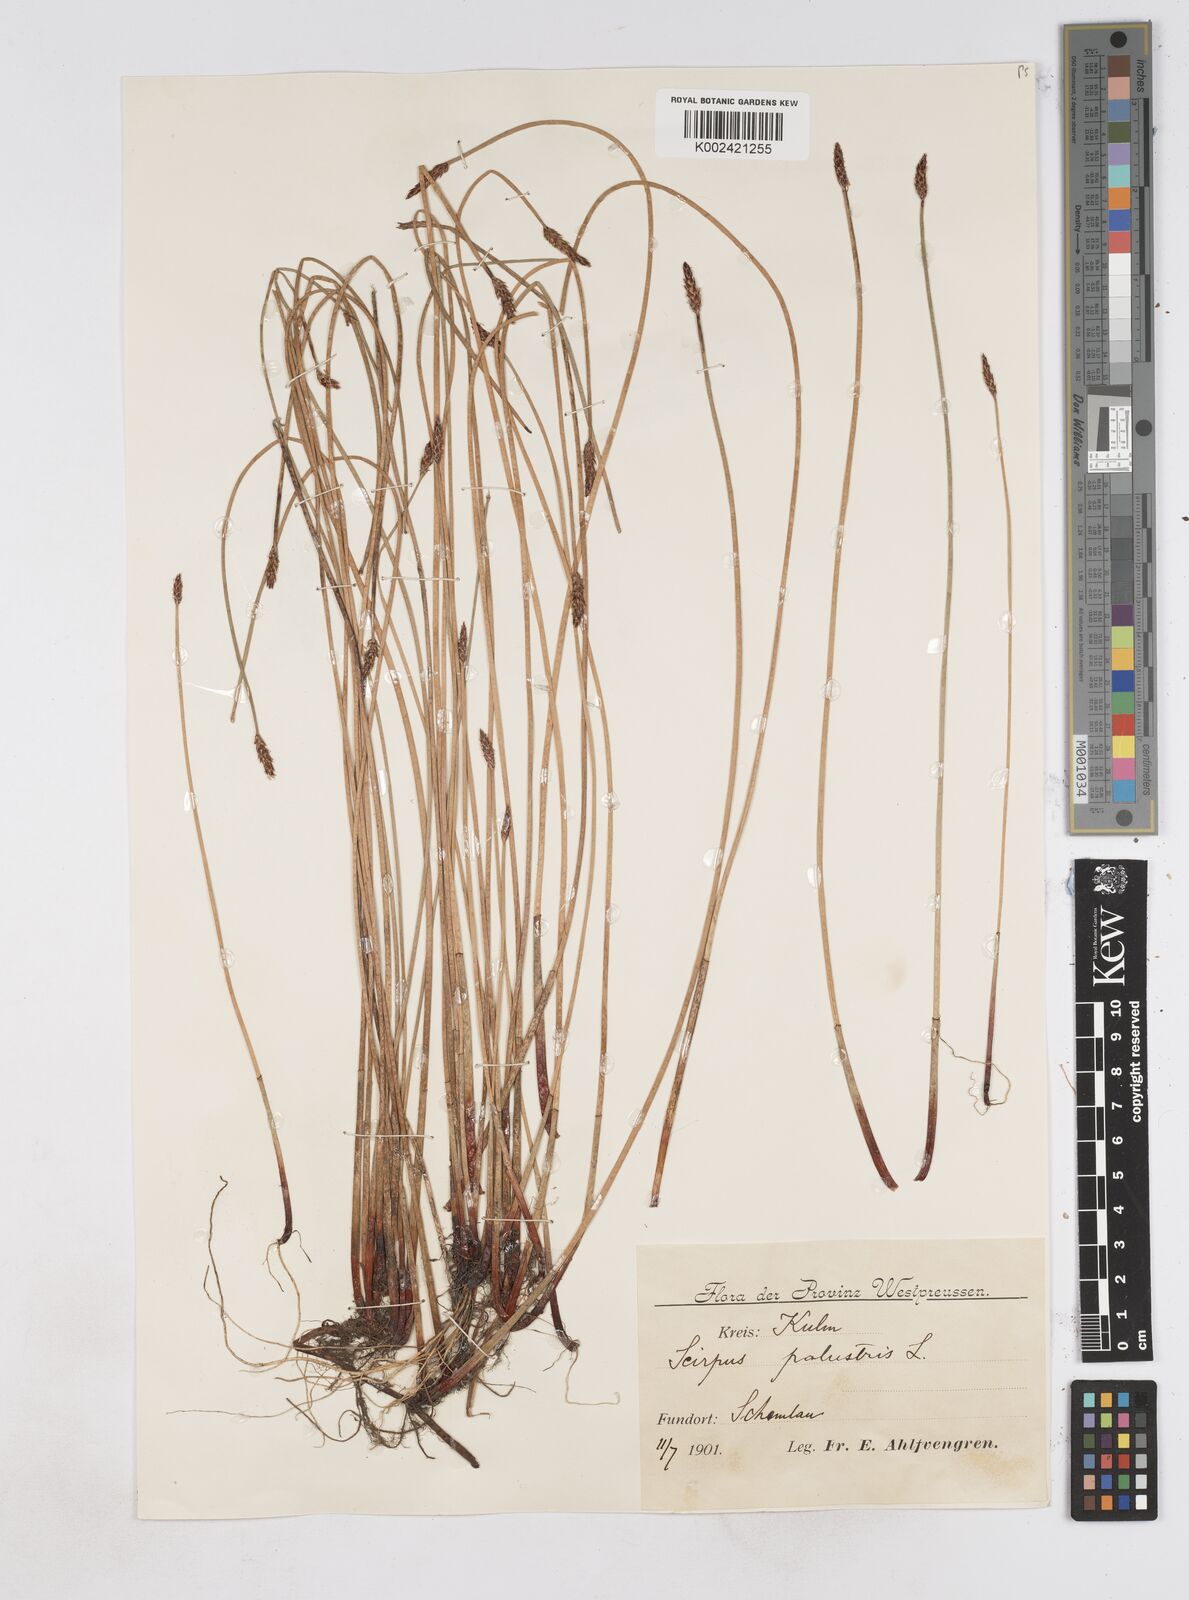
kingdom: Plantae
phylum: Tracheophyta
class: Liliopsida
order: Poales
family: Cyperaceae
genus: Eleocharis
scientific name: Eleocharis palustris
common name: Common spike-rush
